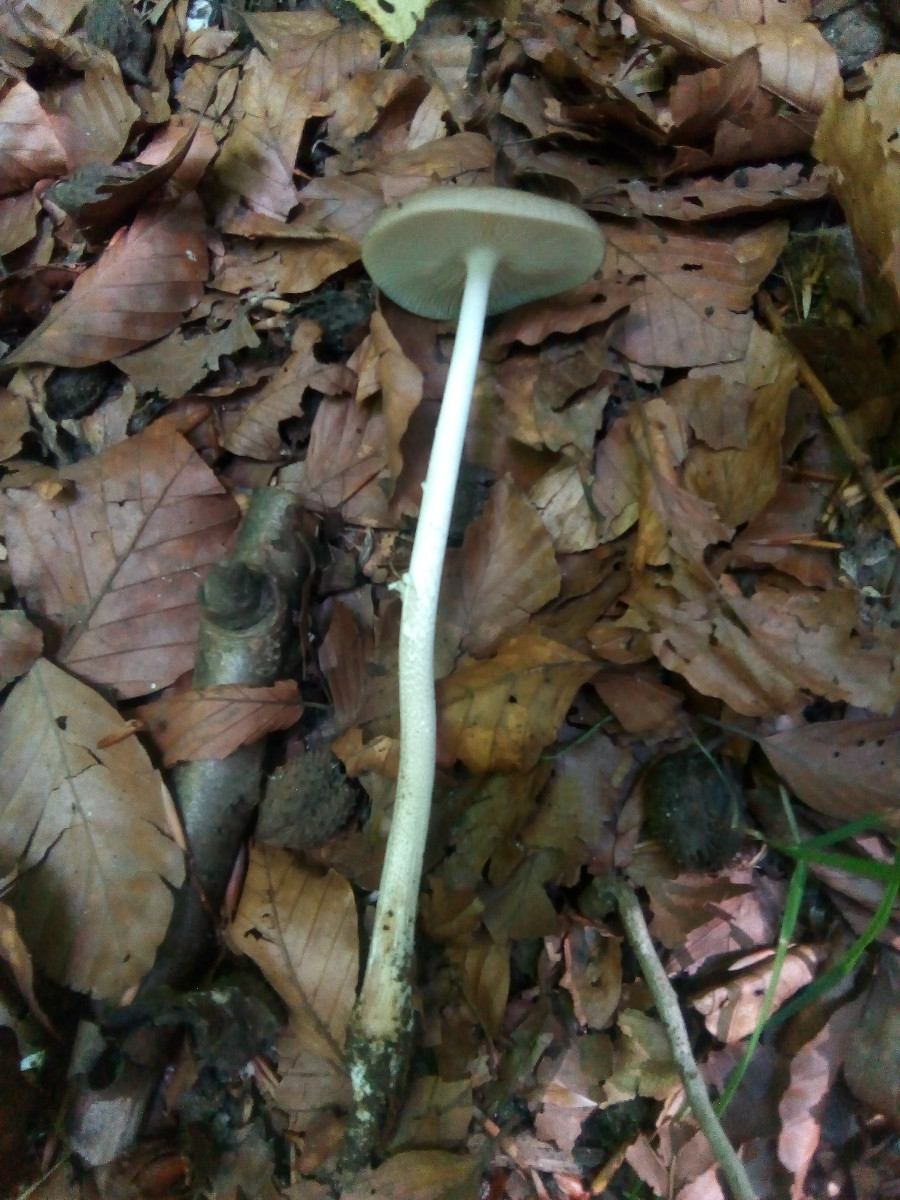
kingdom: Fungi
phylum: Basidiomycota
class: Agaricomycetes
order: Agaricales
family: Physalacriaceae
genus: Hymenopellis
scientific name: Hymenopellis radicata
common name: almindelig pælerodshat
